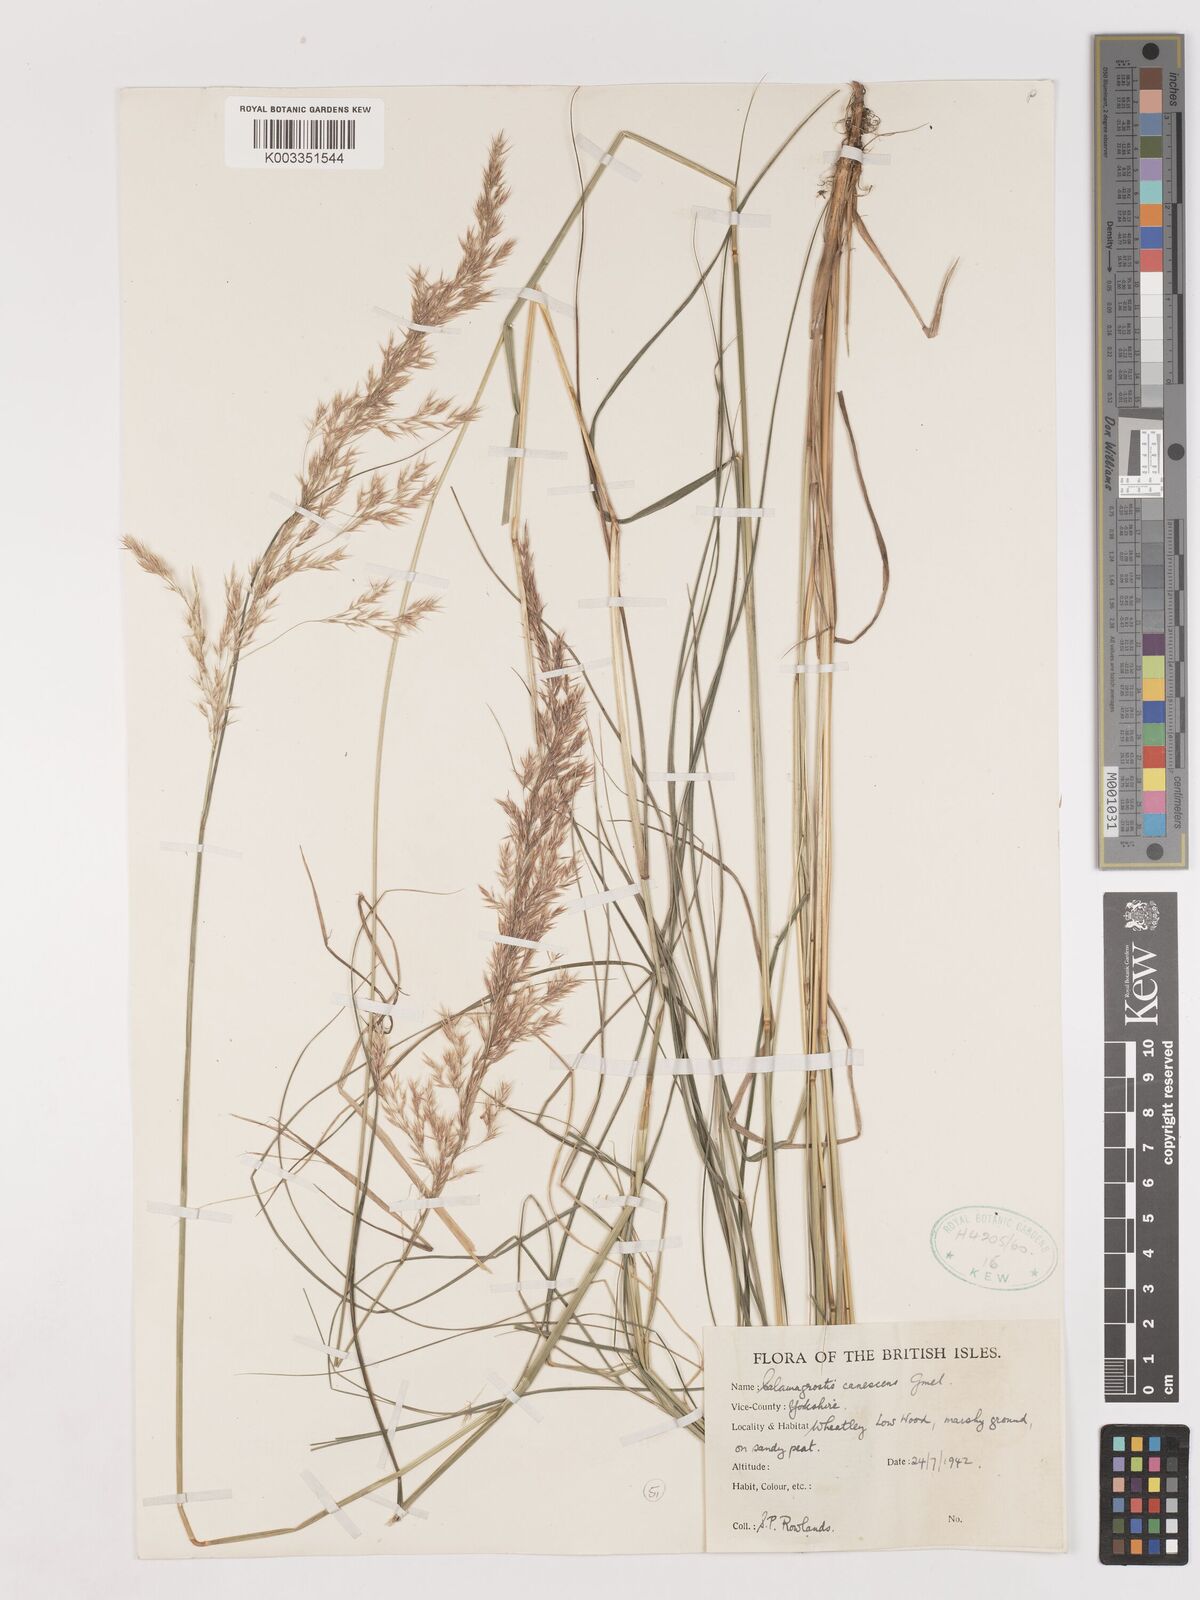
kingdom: Plantae
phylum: Tracheophyta
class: Liliopsida
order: Poales
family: Poaceae
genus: Calamagrostis
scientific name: Calamagrostis canescens
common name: Purple small-reed
